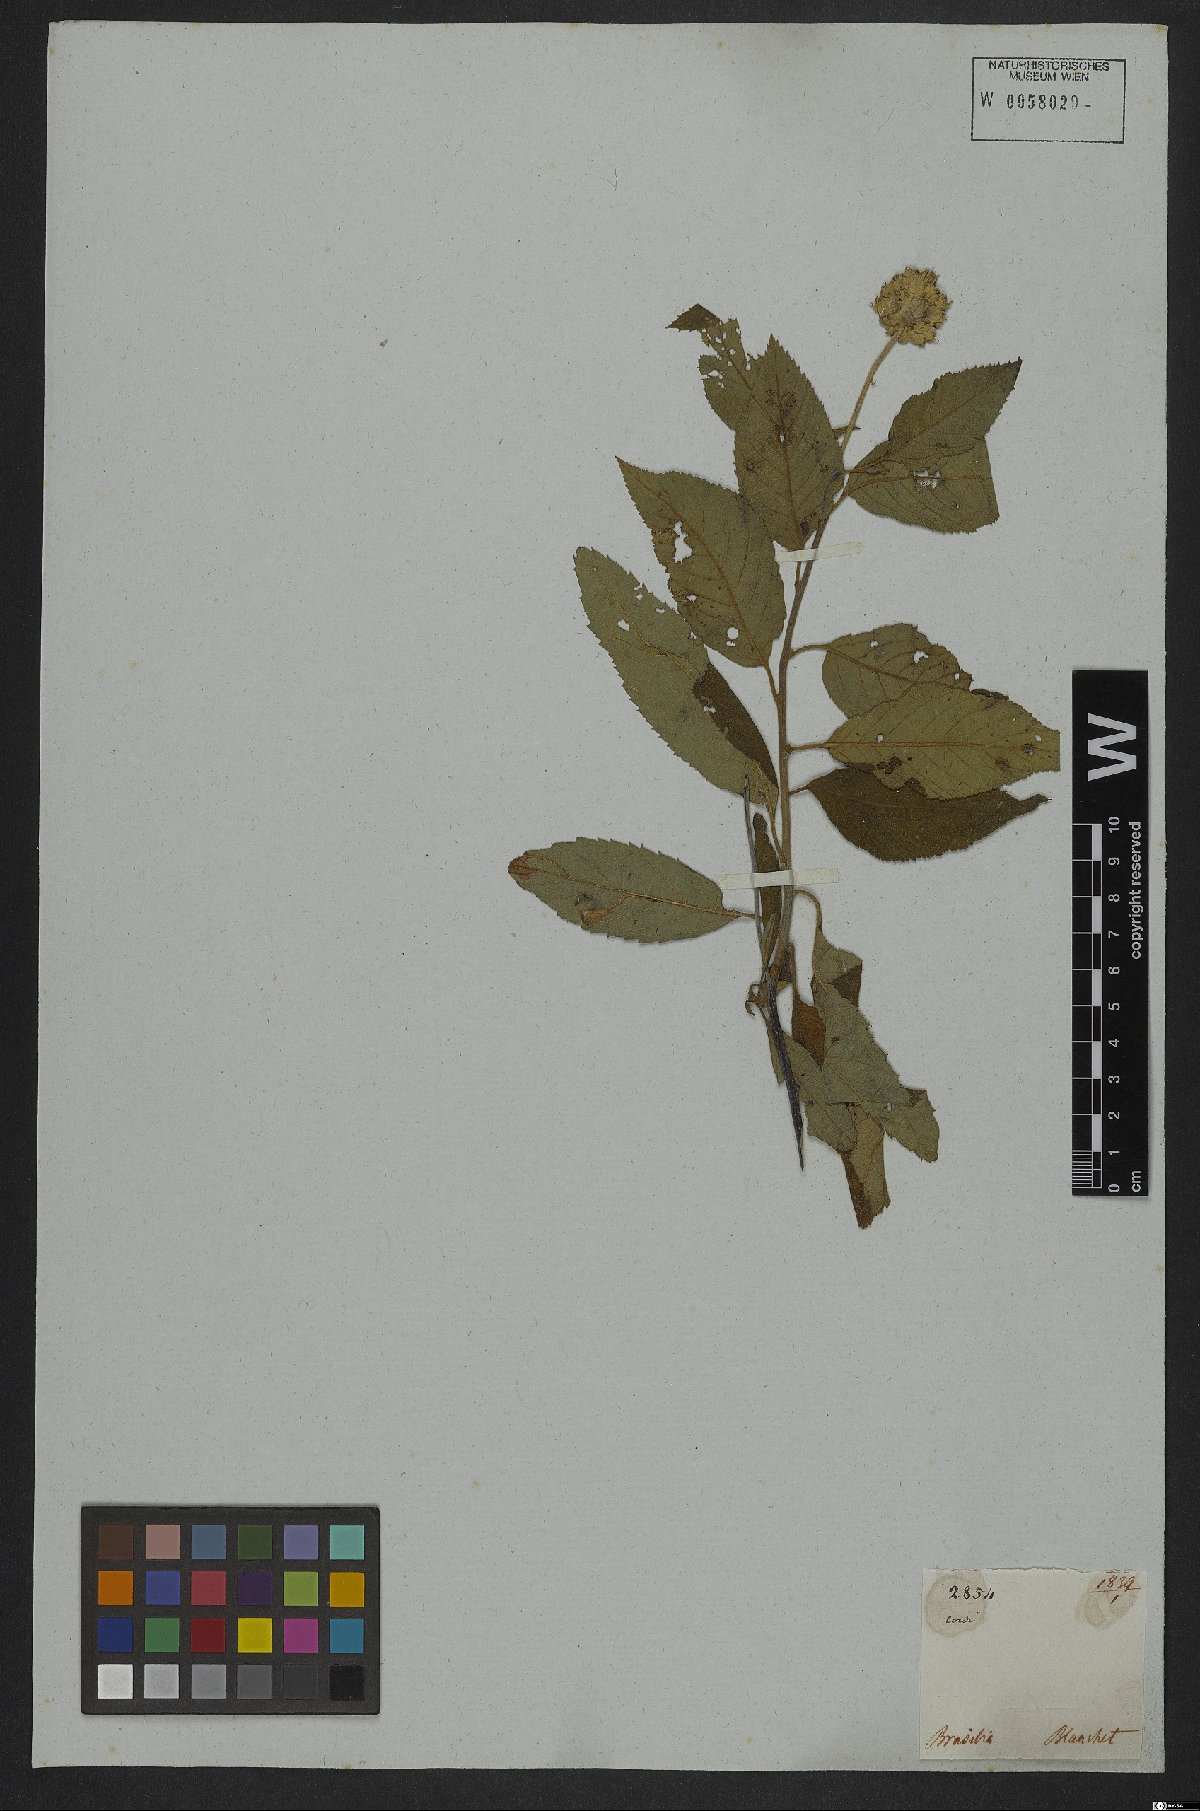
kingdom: Plantae
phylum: Tracheophyta
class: Magnoliopsida
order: Boraginales
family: Cordiaceae
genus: Cordia
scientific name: Cordia affinis
